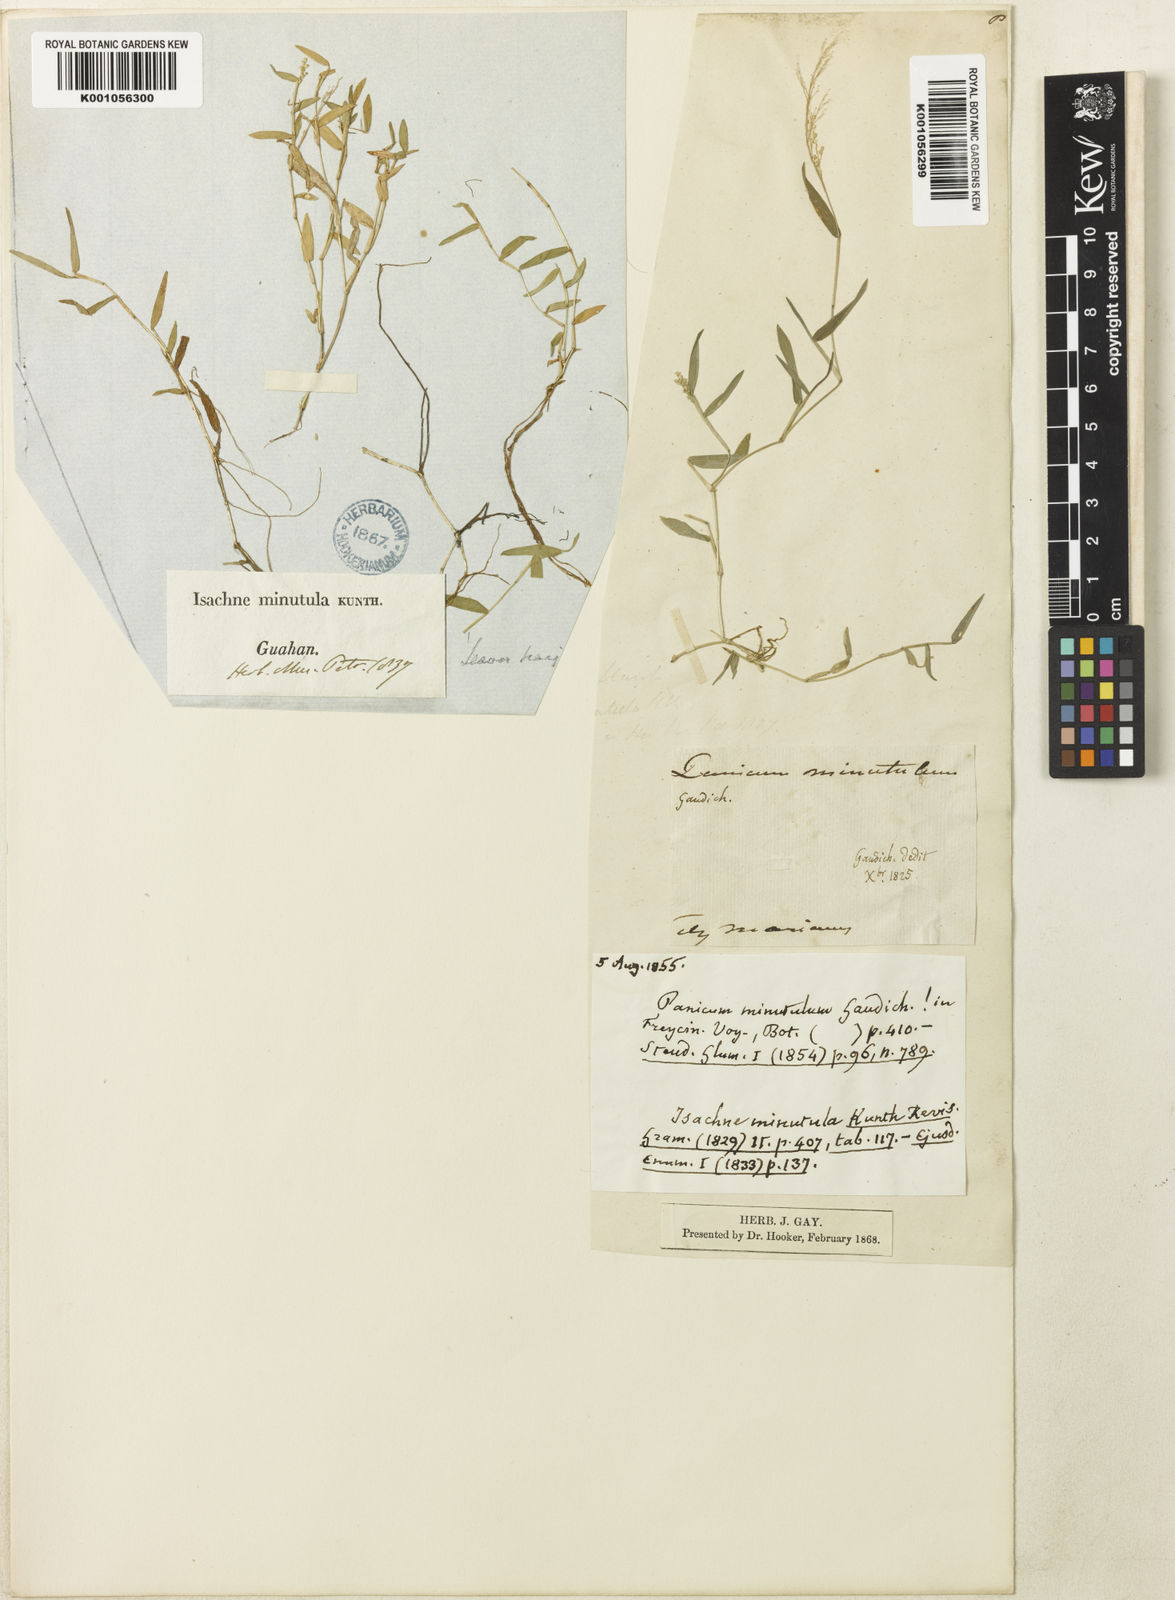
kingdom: Plantae
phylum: Tracheophyta
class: Liliopsida
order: Poales
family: Poaceae
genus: Isachne
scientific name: Isachne pallens
